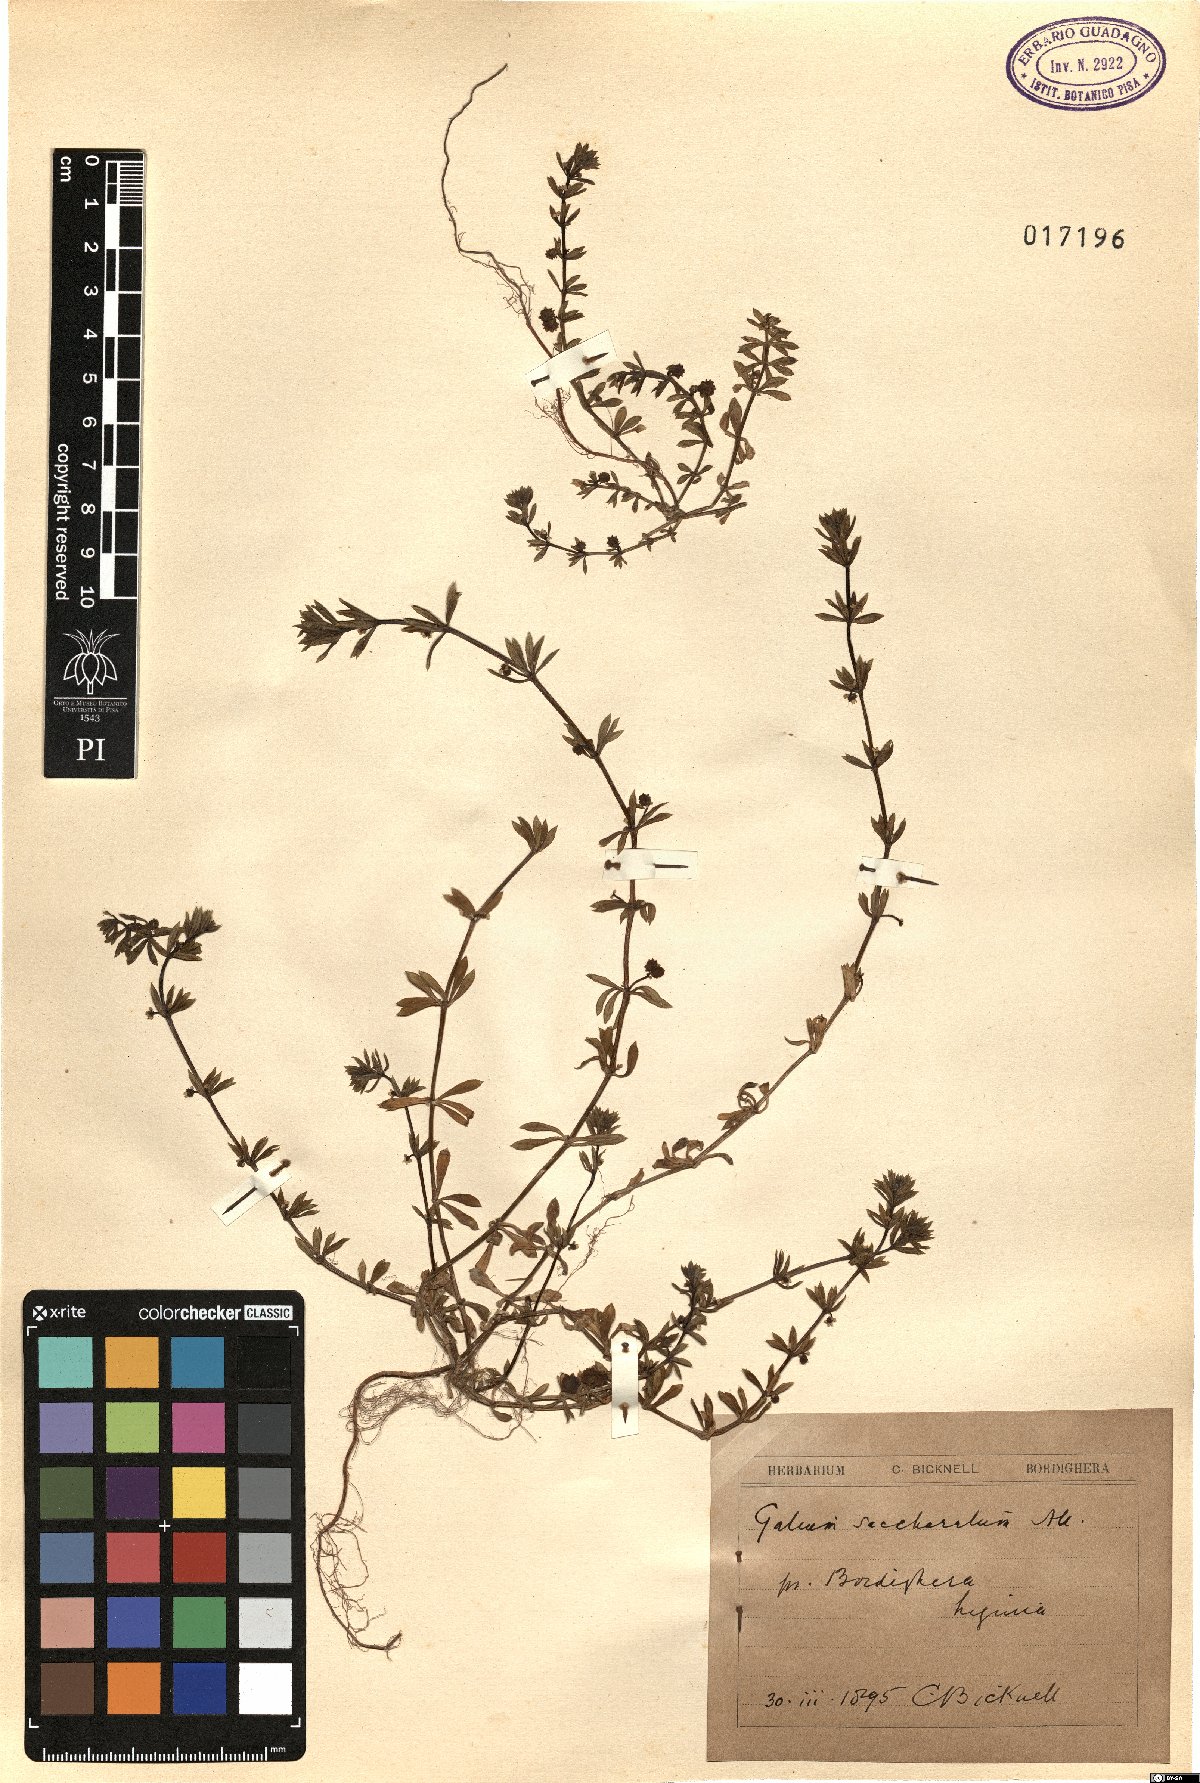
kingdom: Plantae
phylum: Tracheophyta
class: Magnoliopsida
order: Gentianales
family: Rubiaceae
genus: Galium
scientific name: Galium verrucosum
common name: Warty bedstraw
